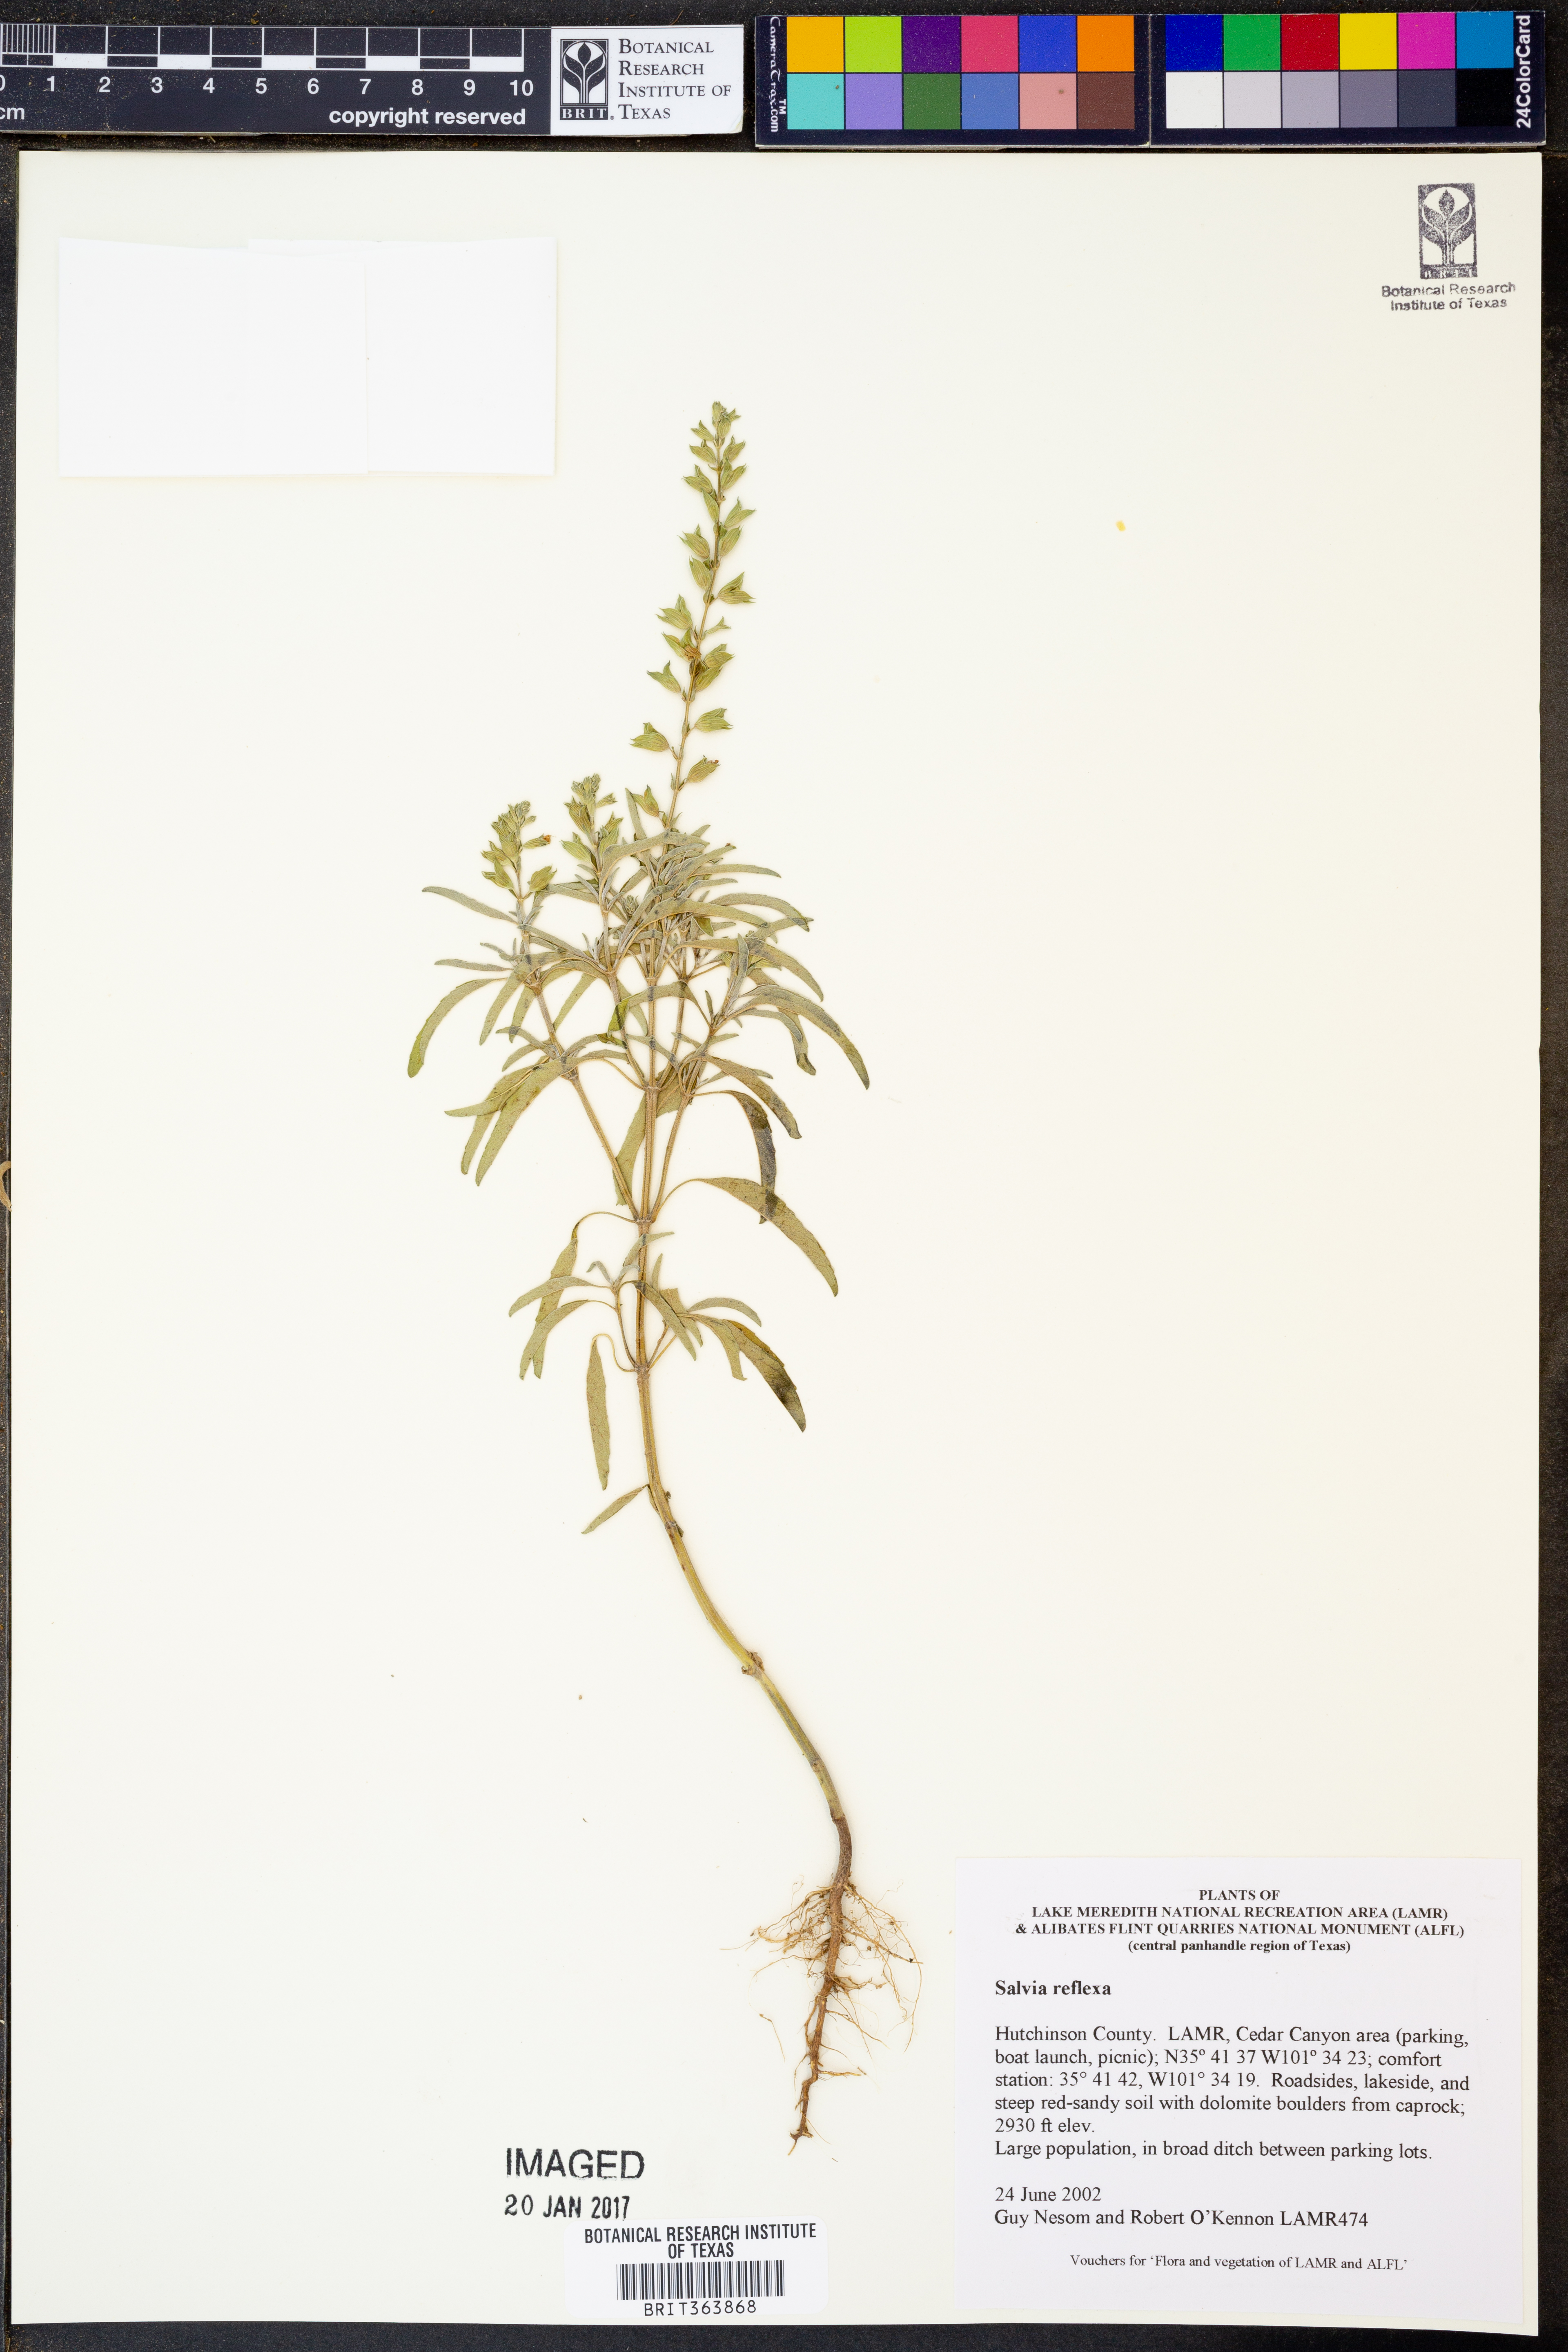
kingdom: Plantae
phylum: Tracheophyta
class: Magnoliopsida
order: Lamiales
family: Lamiaceae
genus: Salvia
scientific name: Salvia reflexa
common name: Mintweed
